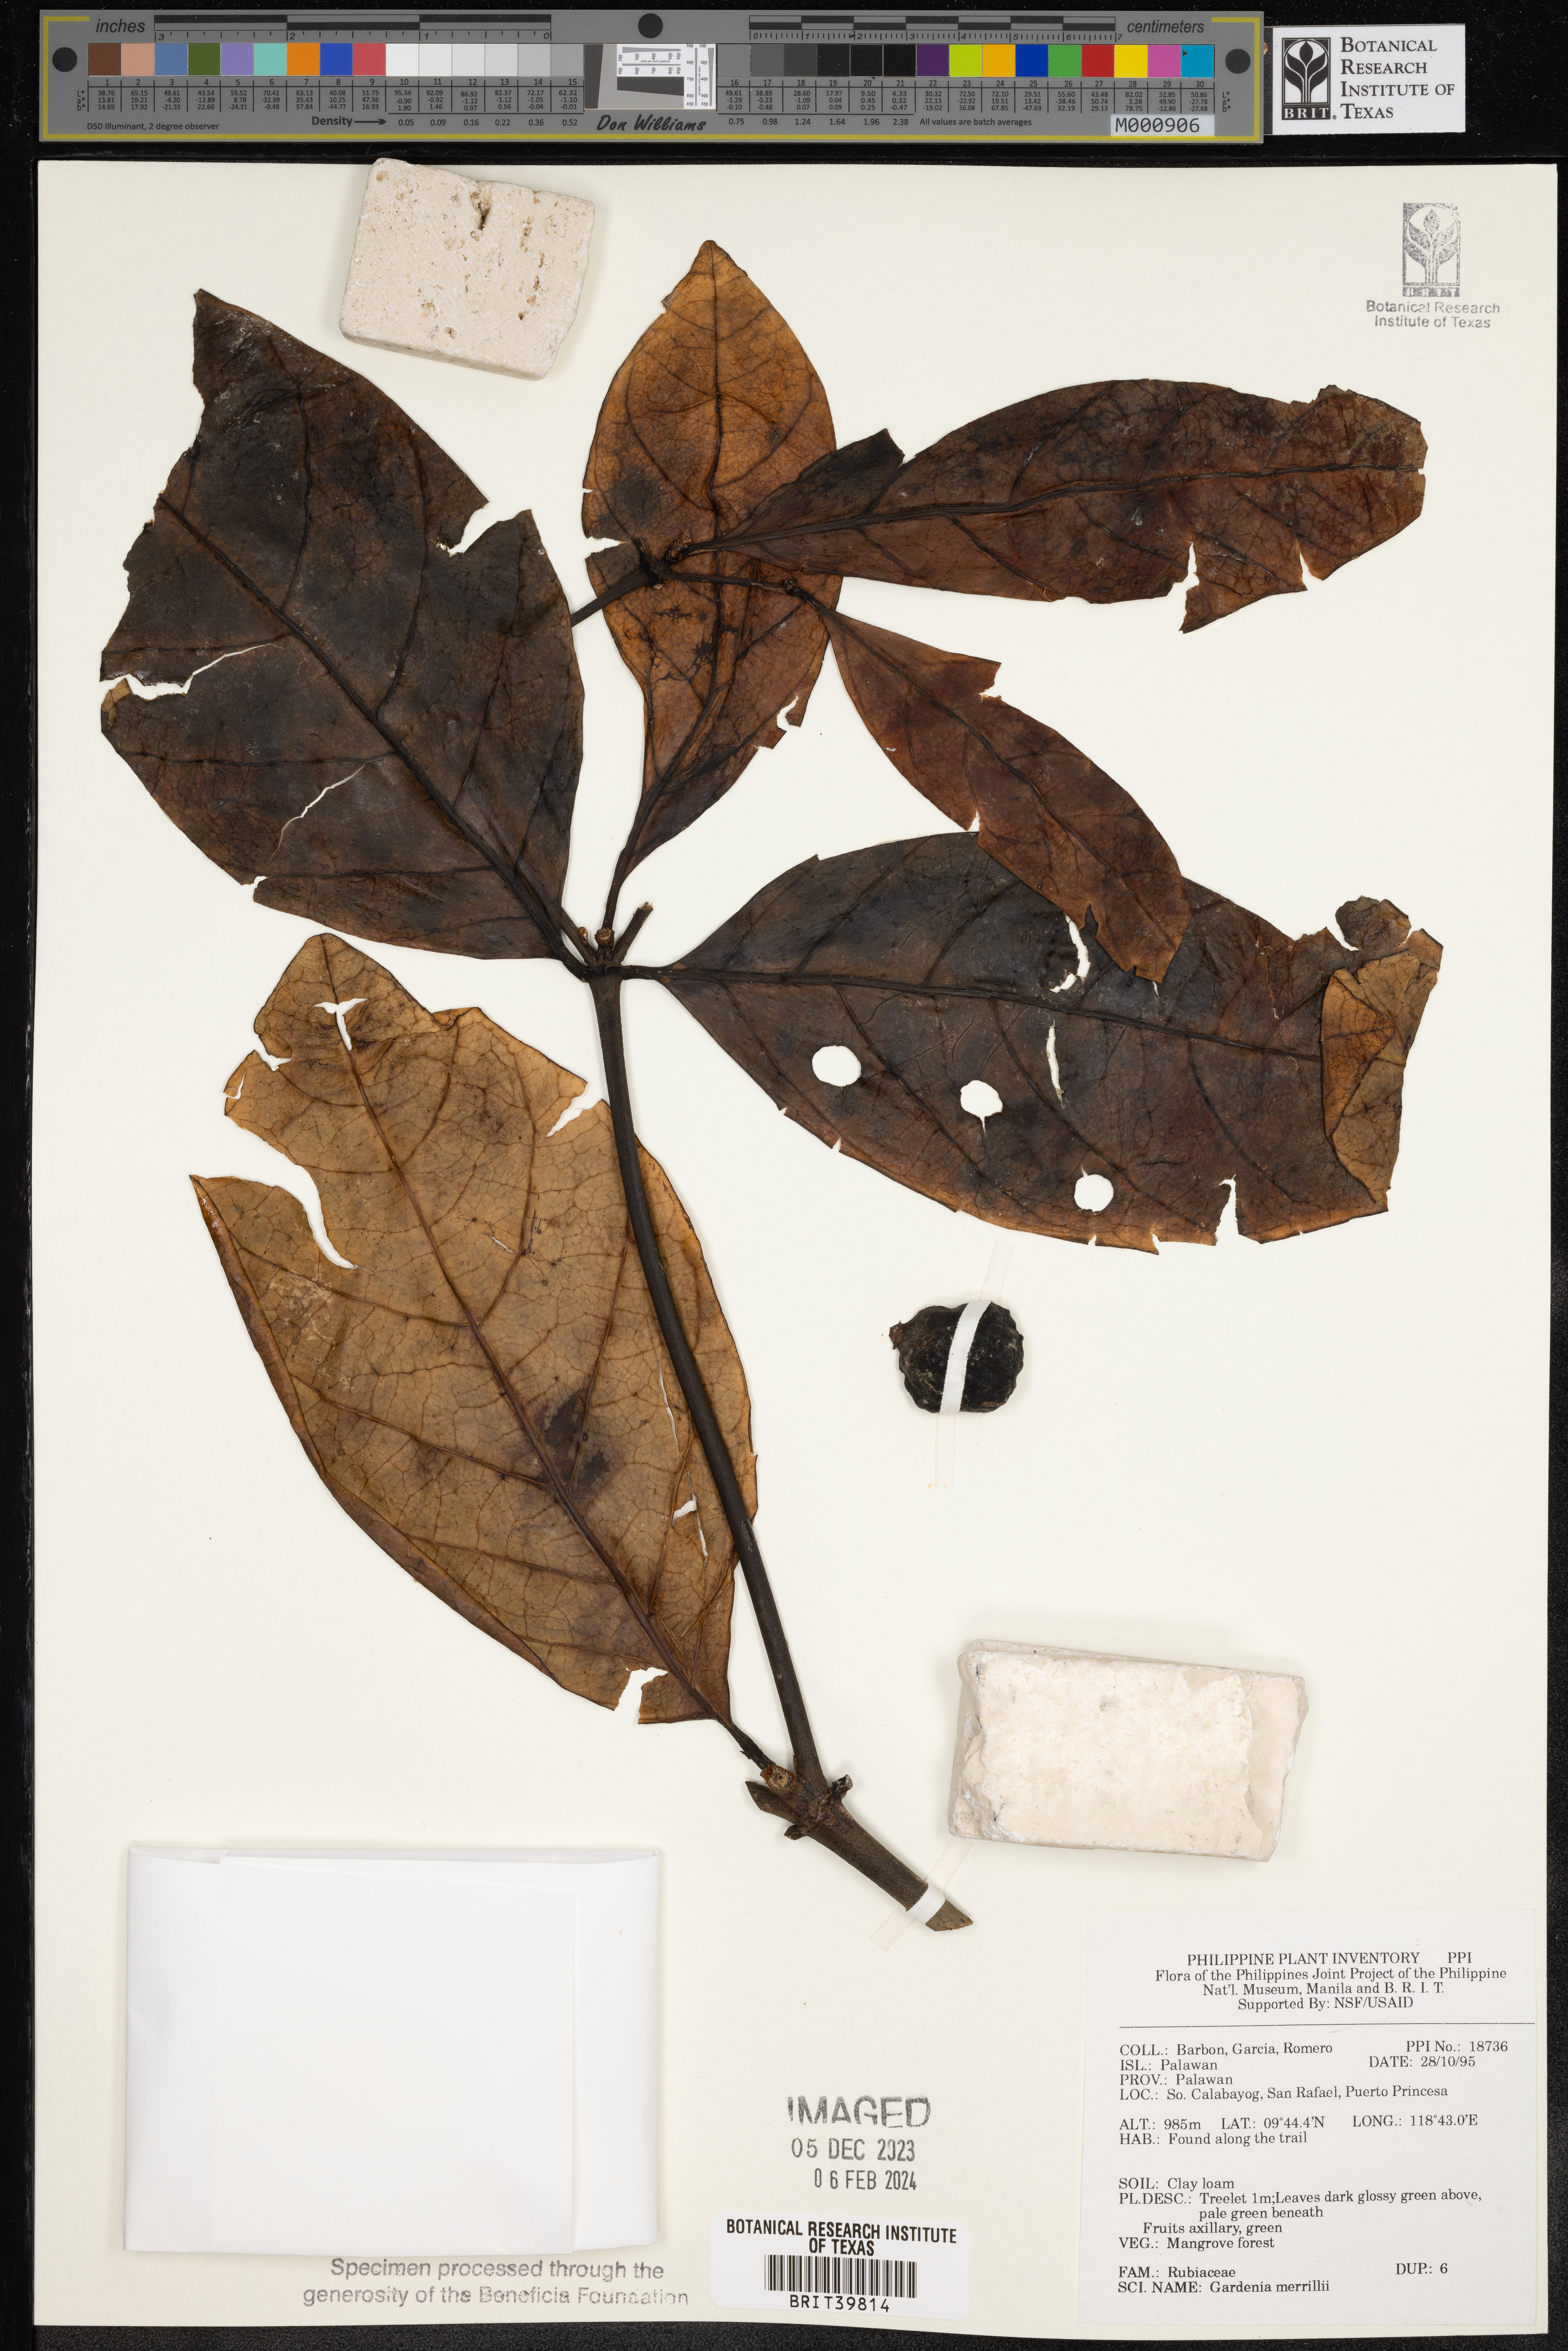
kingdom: Plantae
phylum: Tracheophyta
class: Magnoliopsida
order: Gentianales
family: Rubiaceae
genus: Ridsdalea
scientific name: Ridsdalea merrillii
